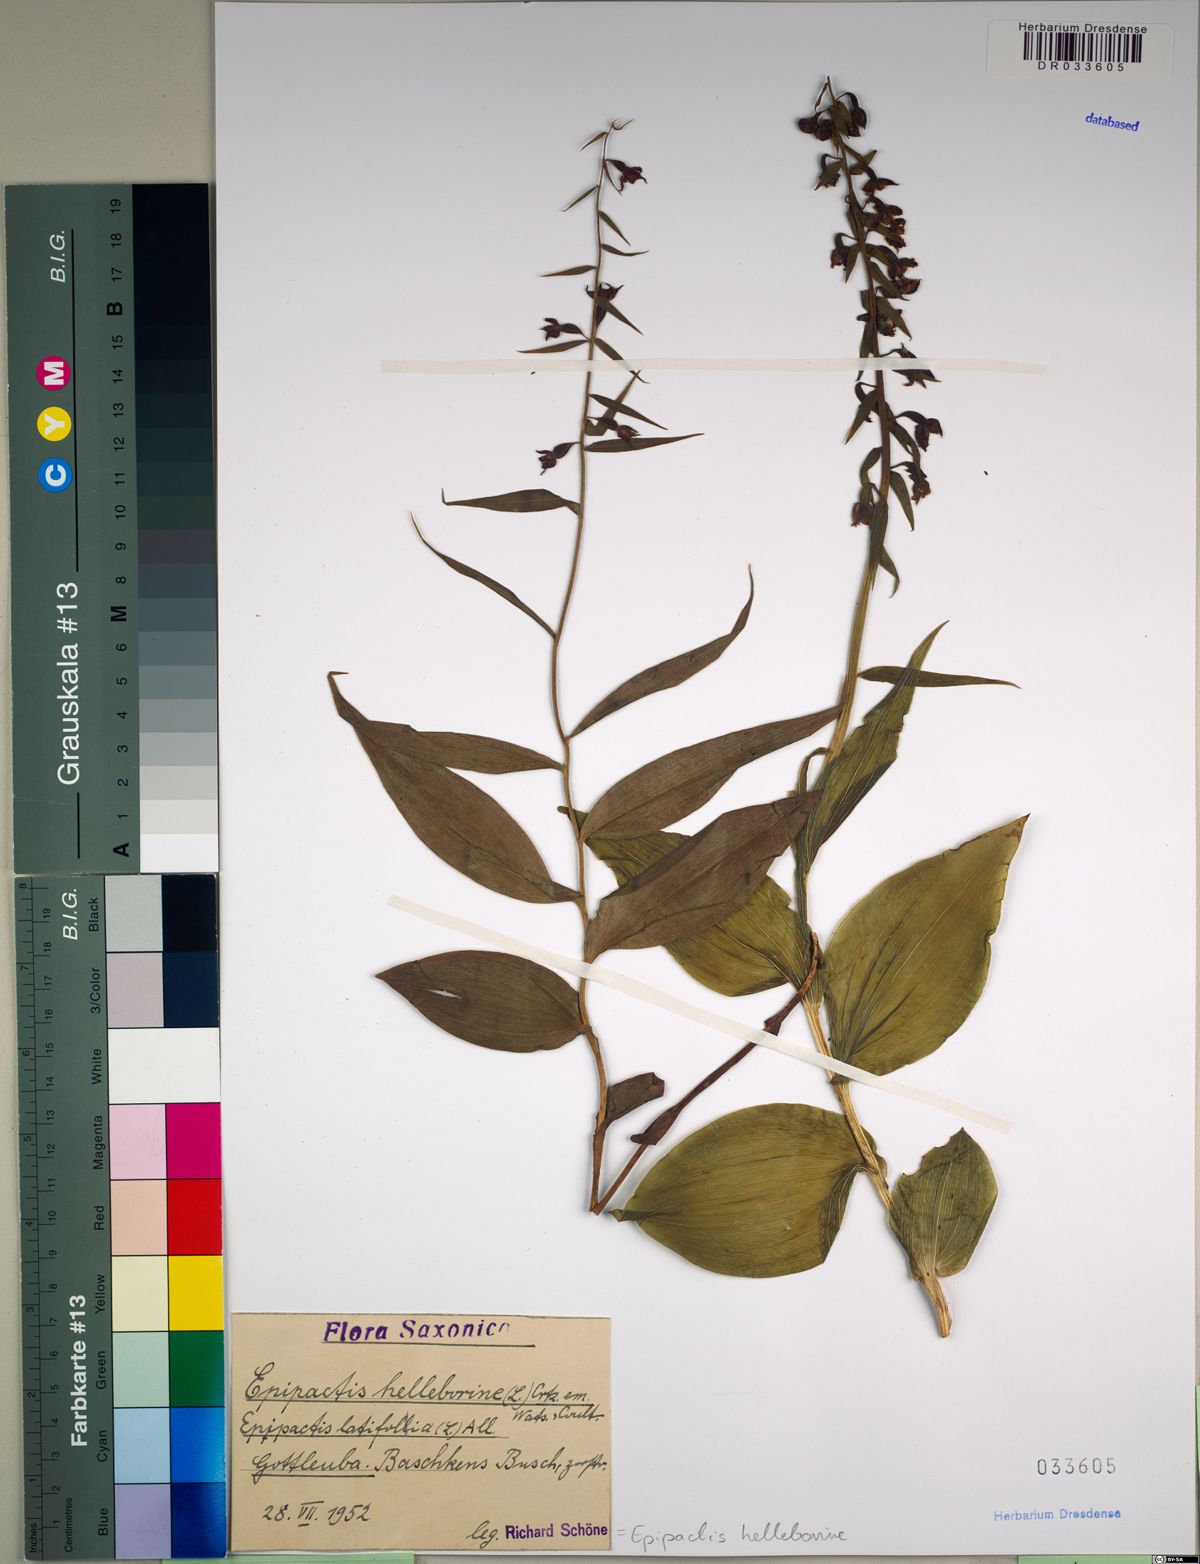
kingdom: Plantae
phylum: Tracheophyta
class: Liliopsida
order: Asparagales
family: Orchidaceae
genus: Epipactis
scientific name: Epipactis helleborine
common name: Broad-leaved helleborine
